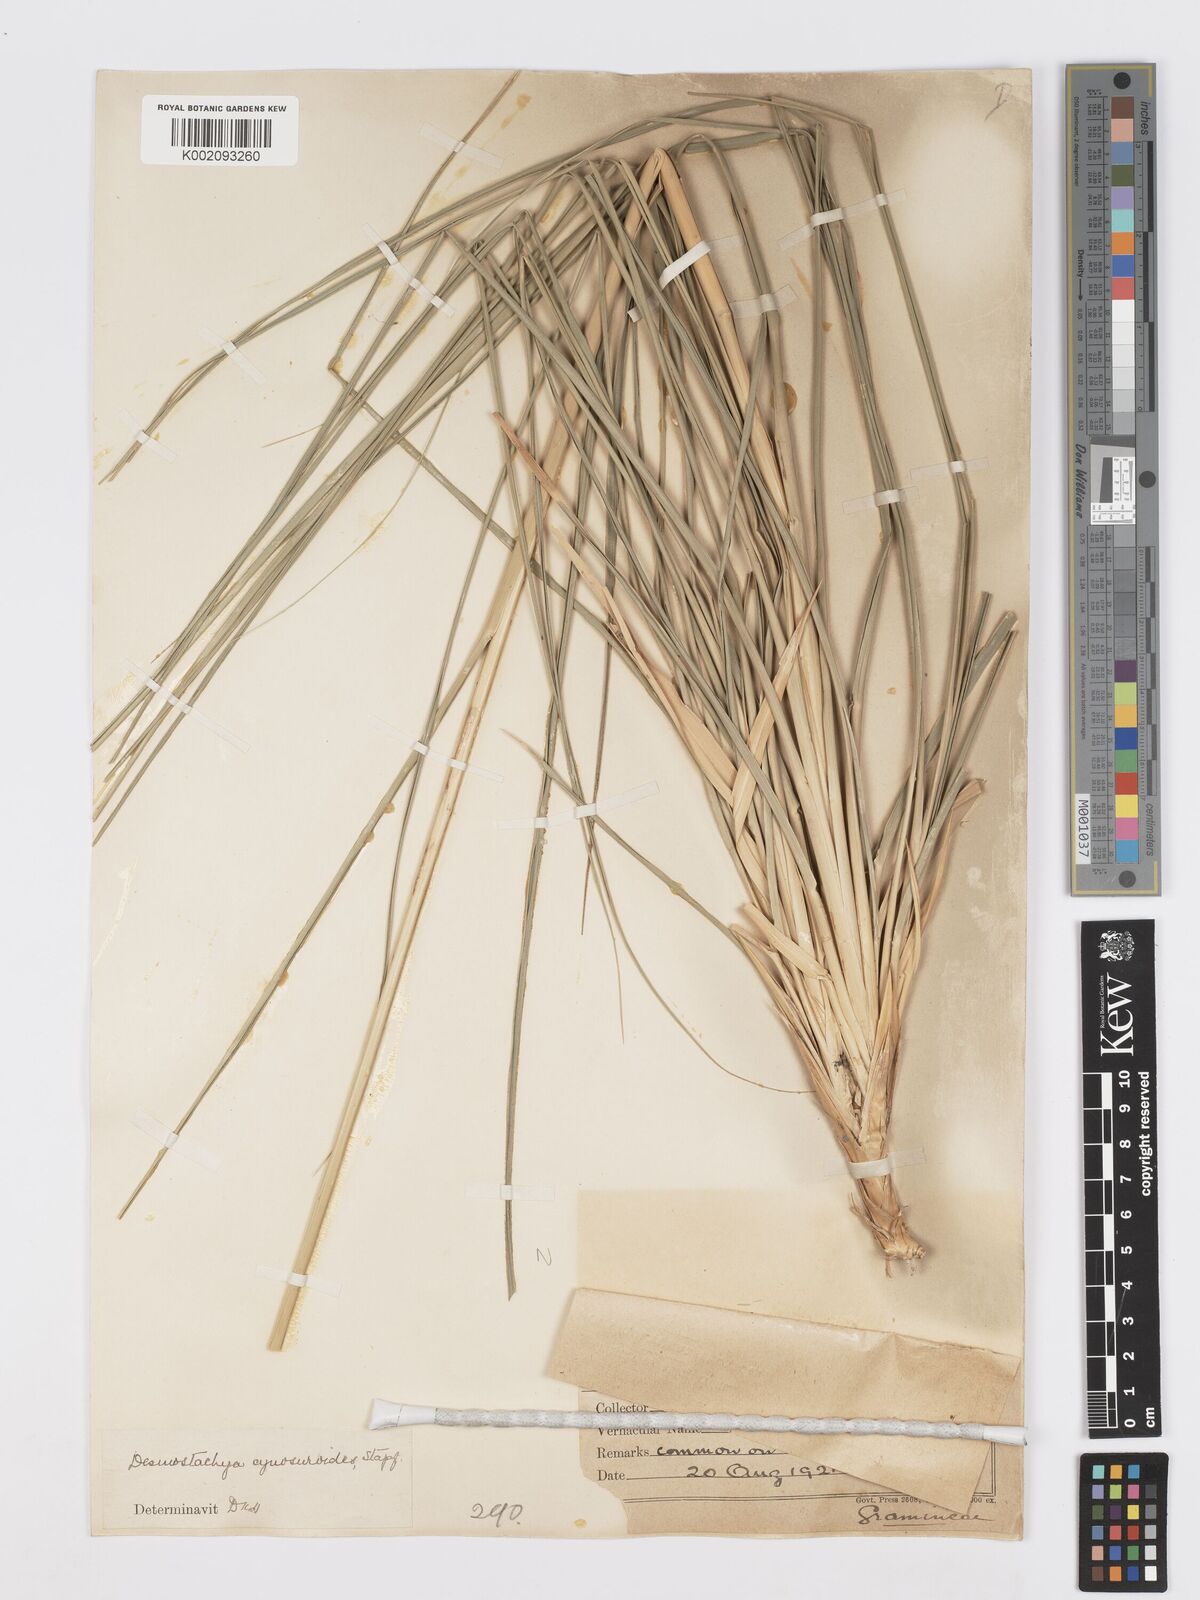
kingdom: Plantae
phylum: Tracheophyta
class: Liliopsida
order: Poales
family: Poaceae
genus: Desmostachya
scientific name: Desmostachya bipinnata
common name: Crowfoot grass
